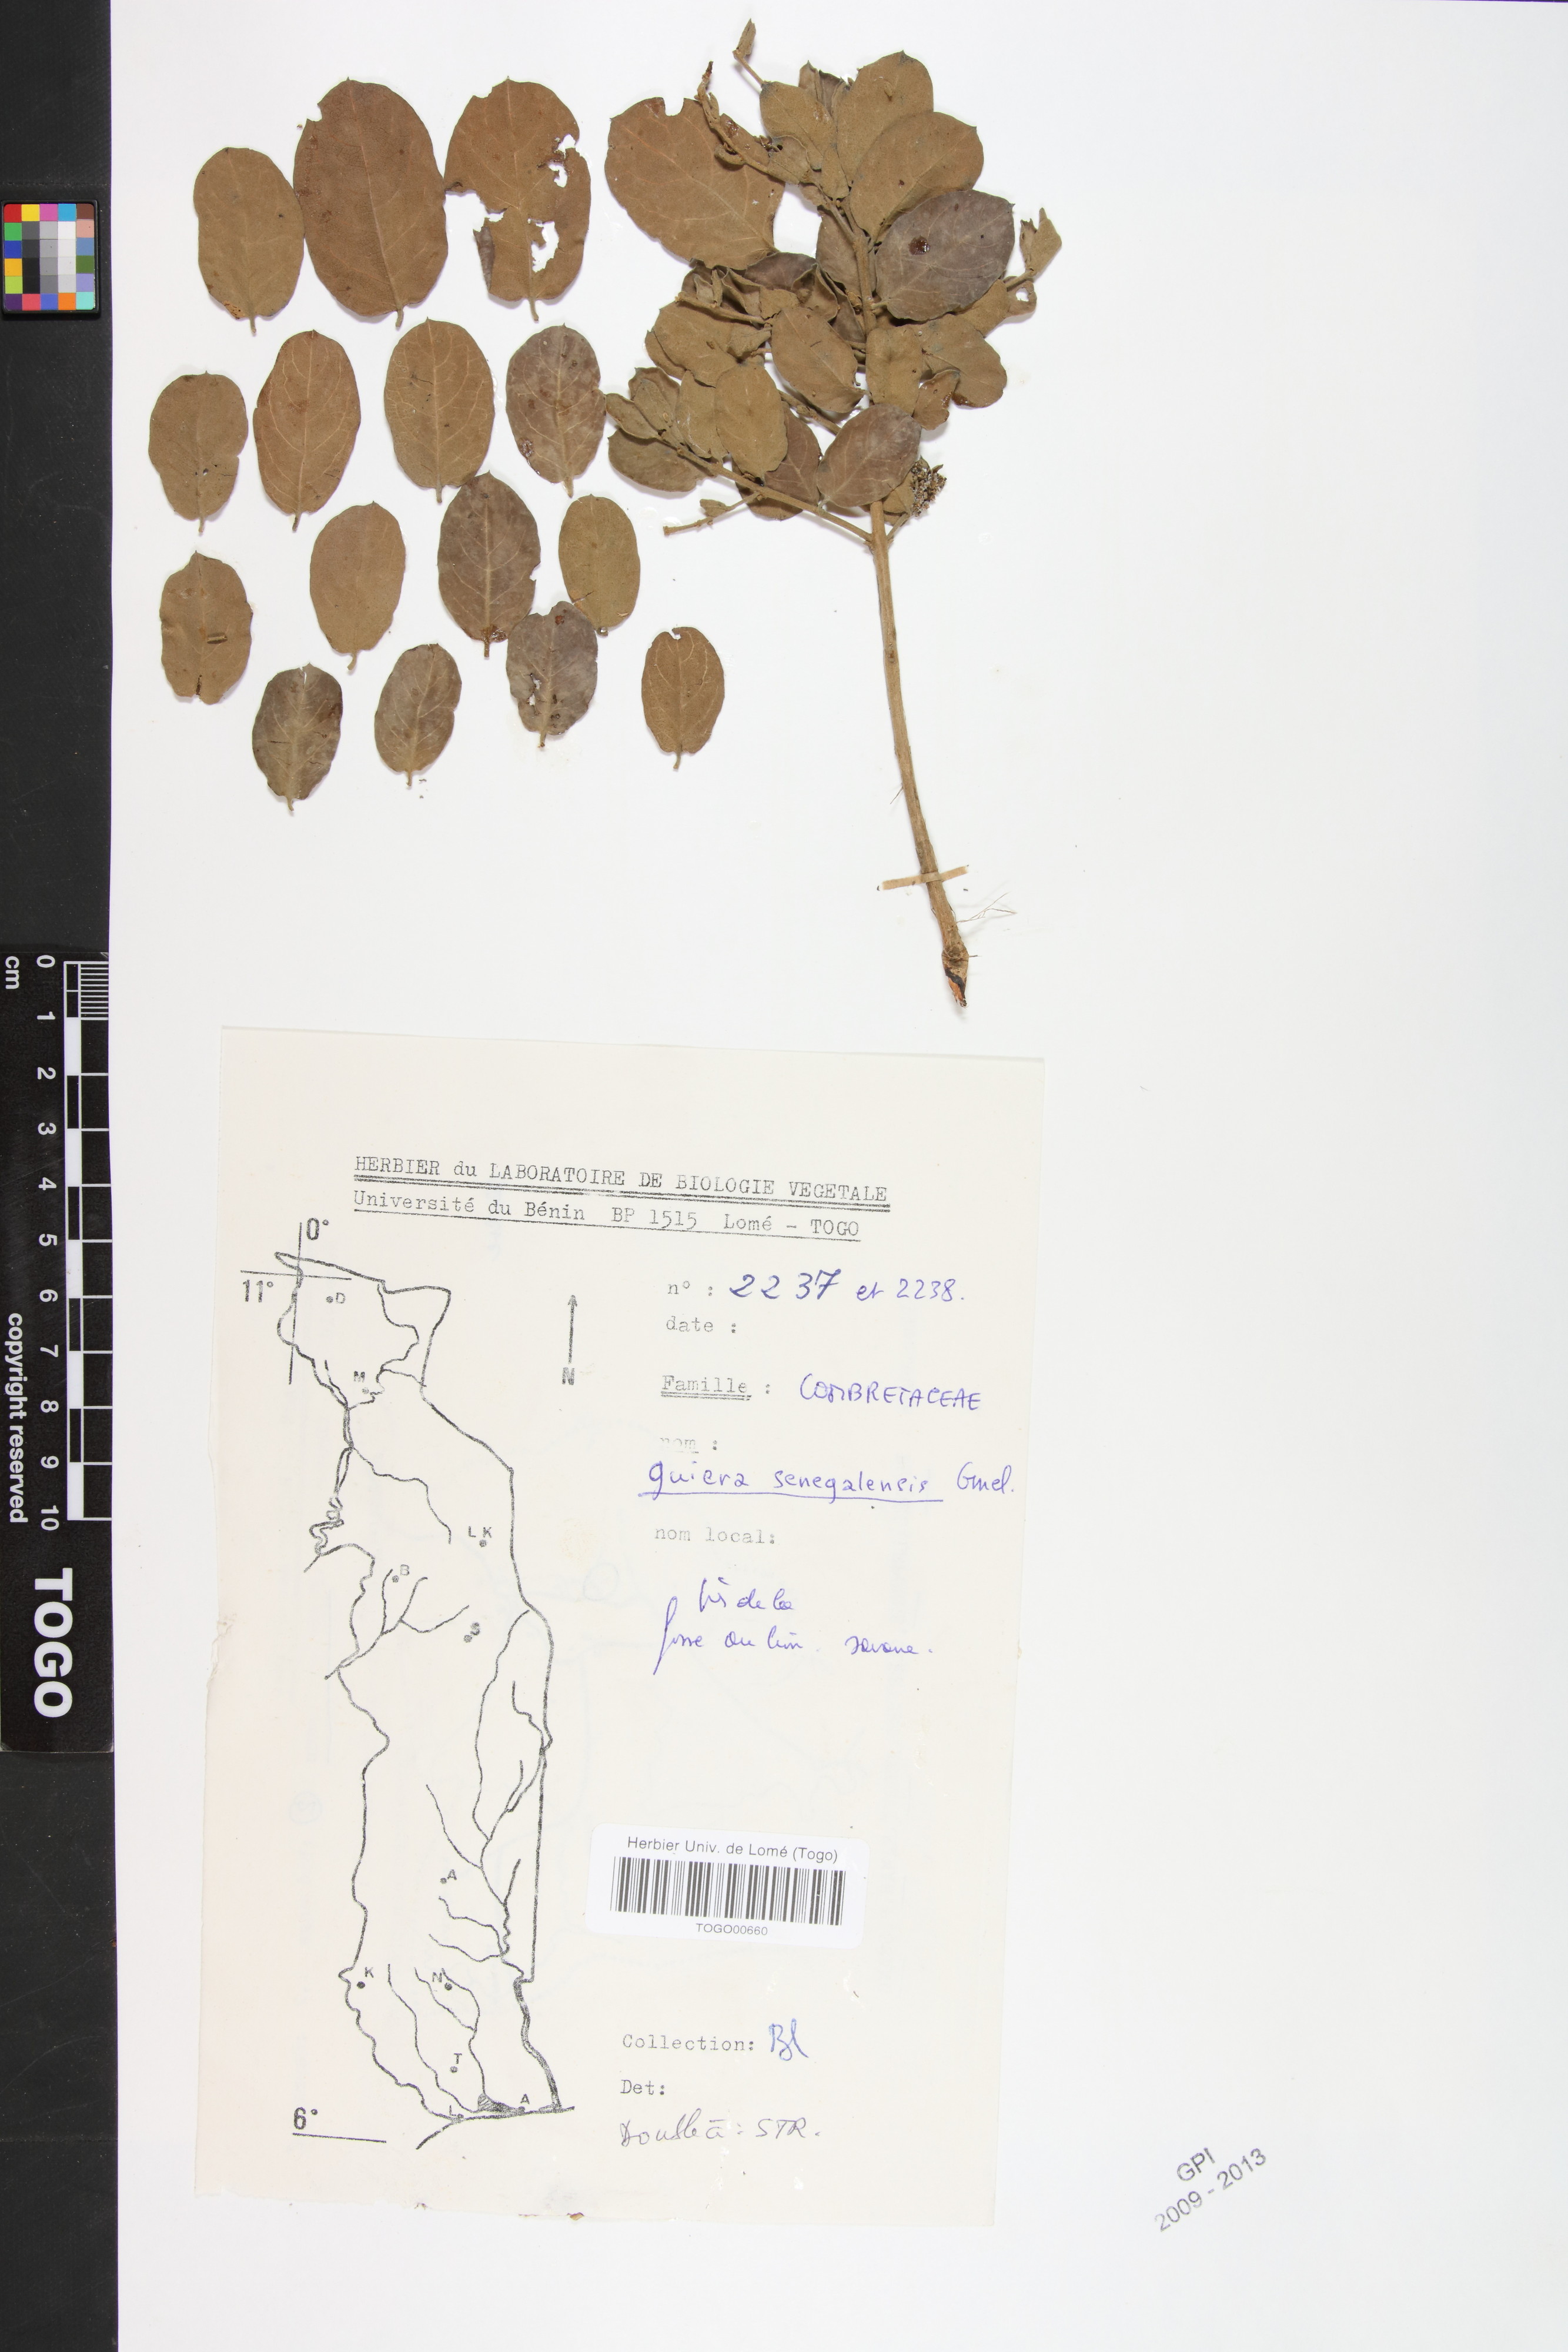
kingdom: Plantae
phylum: Tracheophyta
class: Magnoliopsida
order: Myrtales
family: Combretaceae
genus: Guiera
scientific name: Guiera senegalensis
